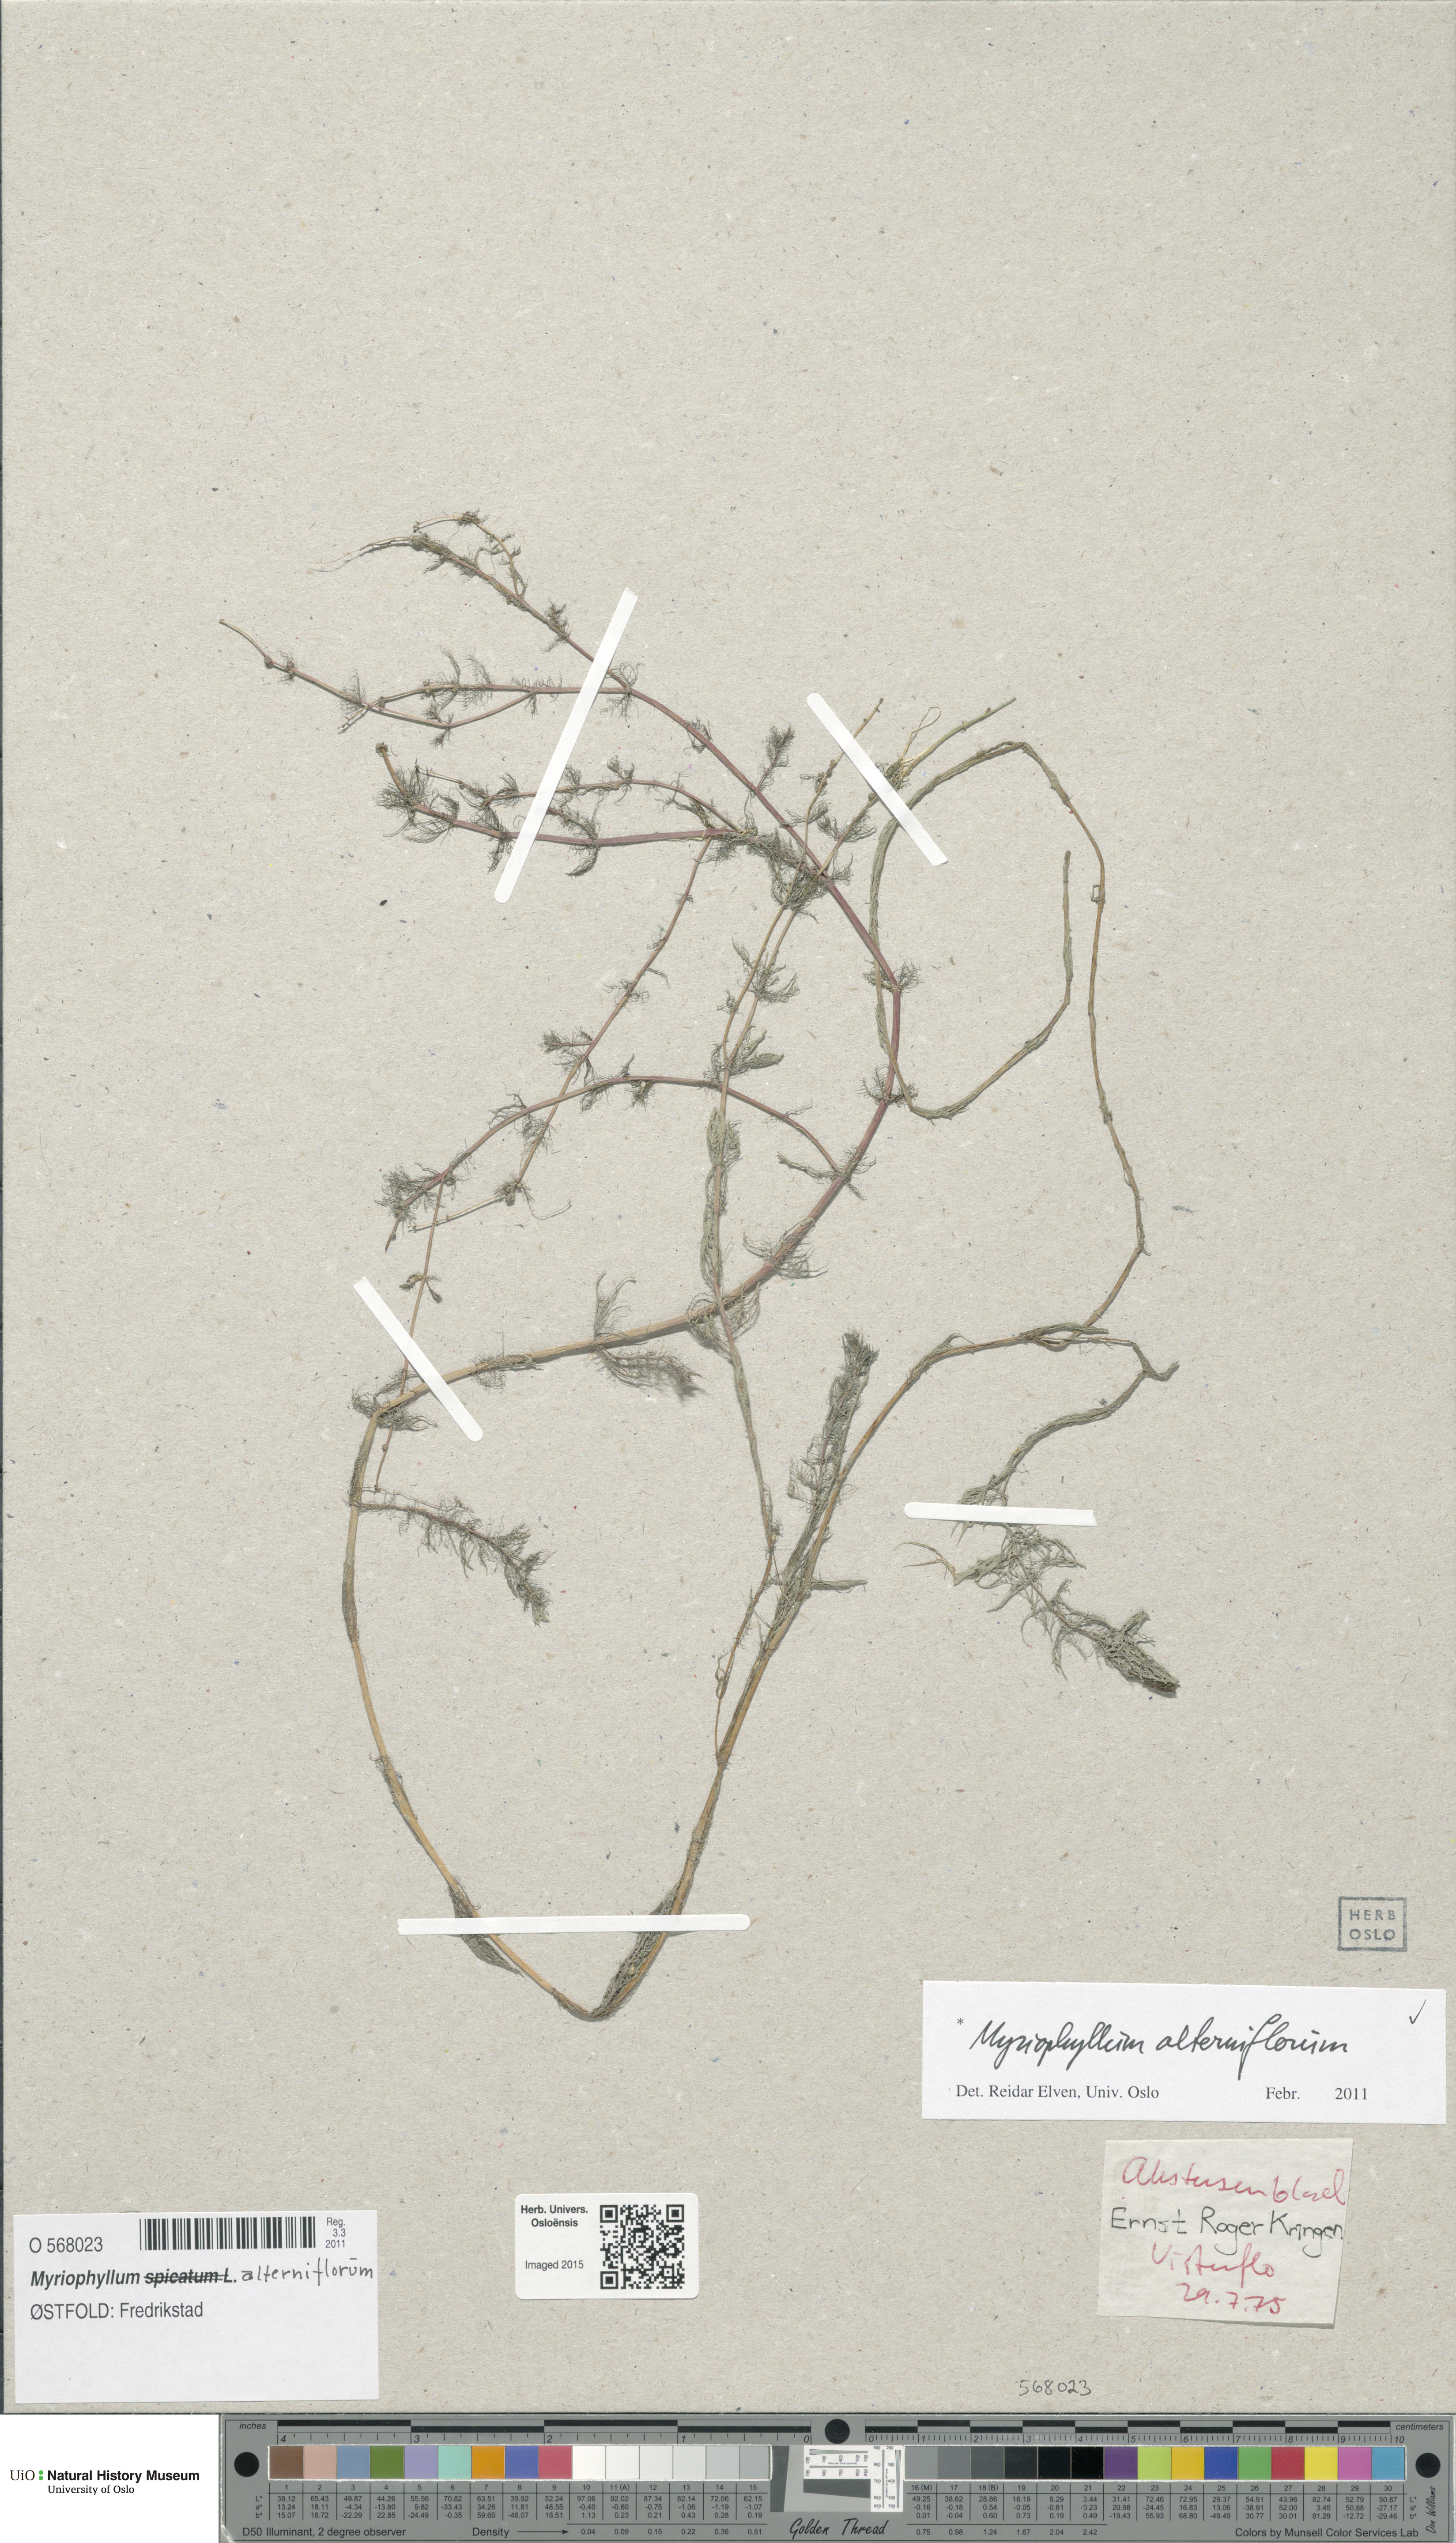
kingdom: Plantae
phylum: Tracheophyta
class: Magnoliopsida
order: Saxifragales
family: Haloragaceae
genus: Myriophyllum
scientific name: Myriophyllum alterniflorum
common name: Alternate water-milfoil
